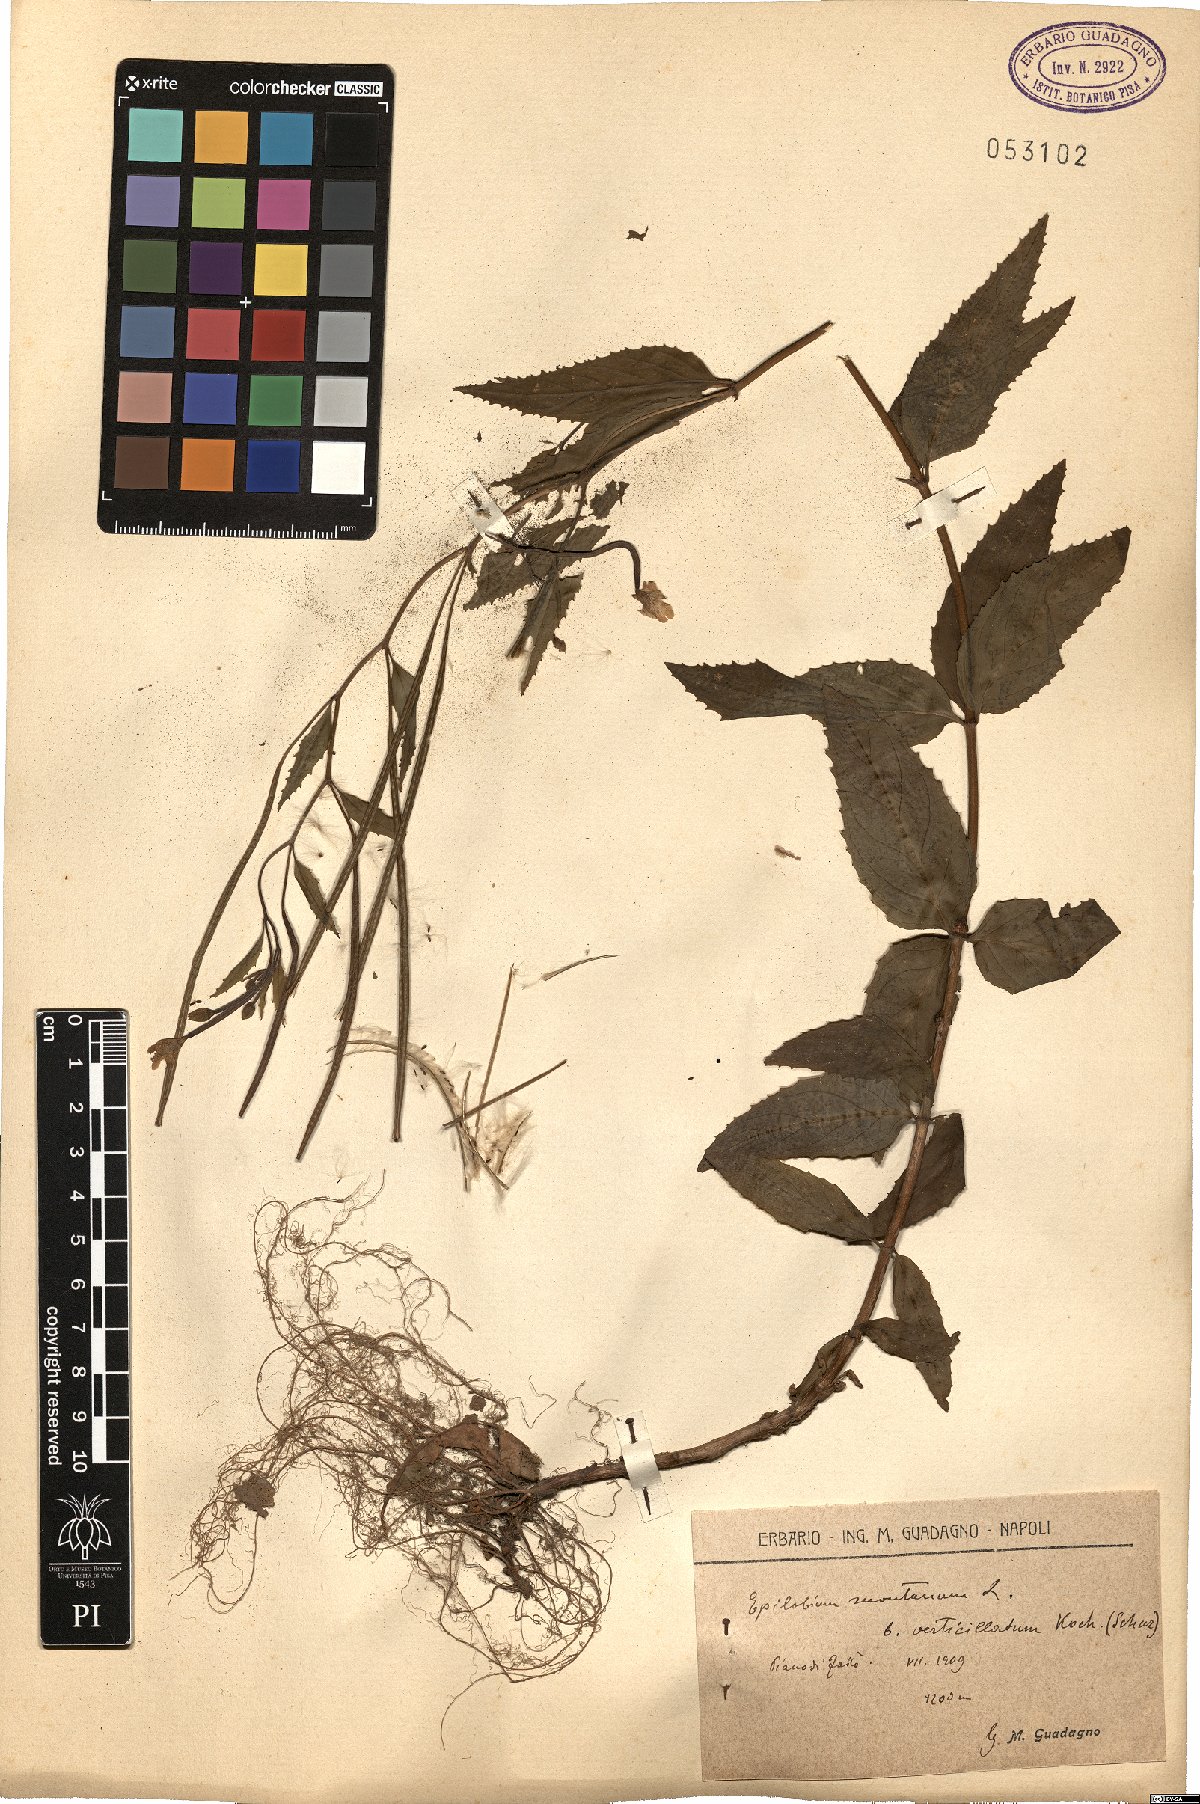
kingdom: Plantae
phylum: Tracheophyta
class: Magnoliopsida
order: Myrtales
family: Onagraceae
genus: Epilobium
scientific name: Epilobium montanum
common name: Broad-leaved willowherb
